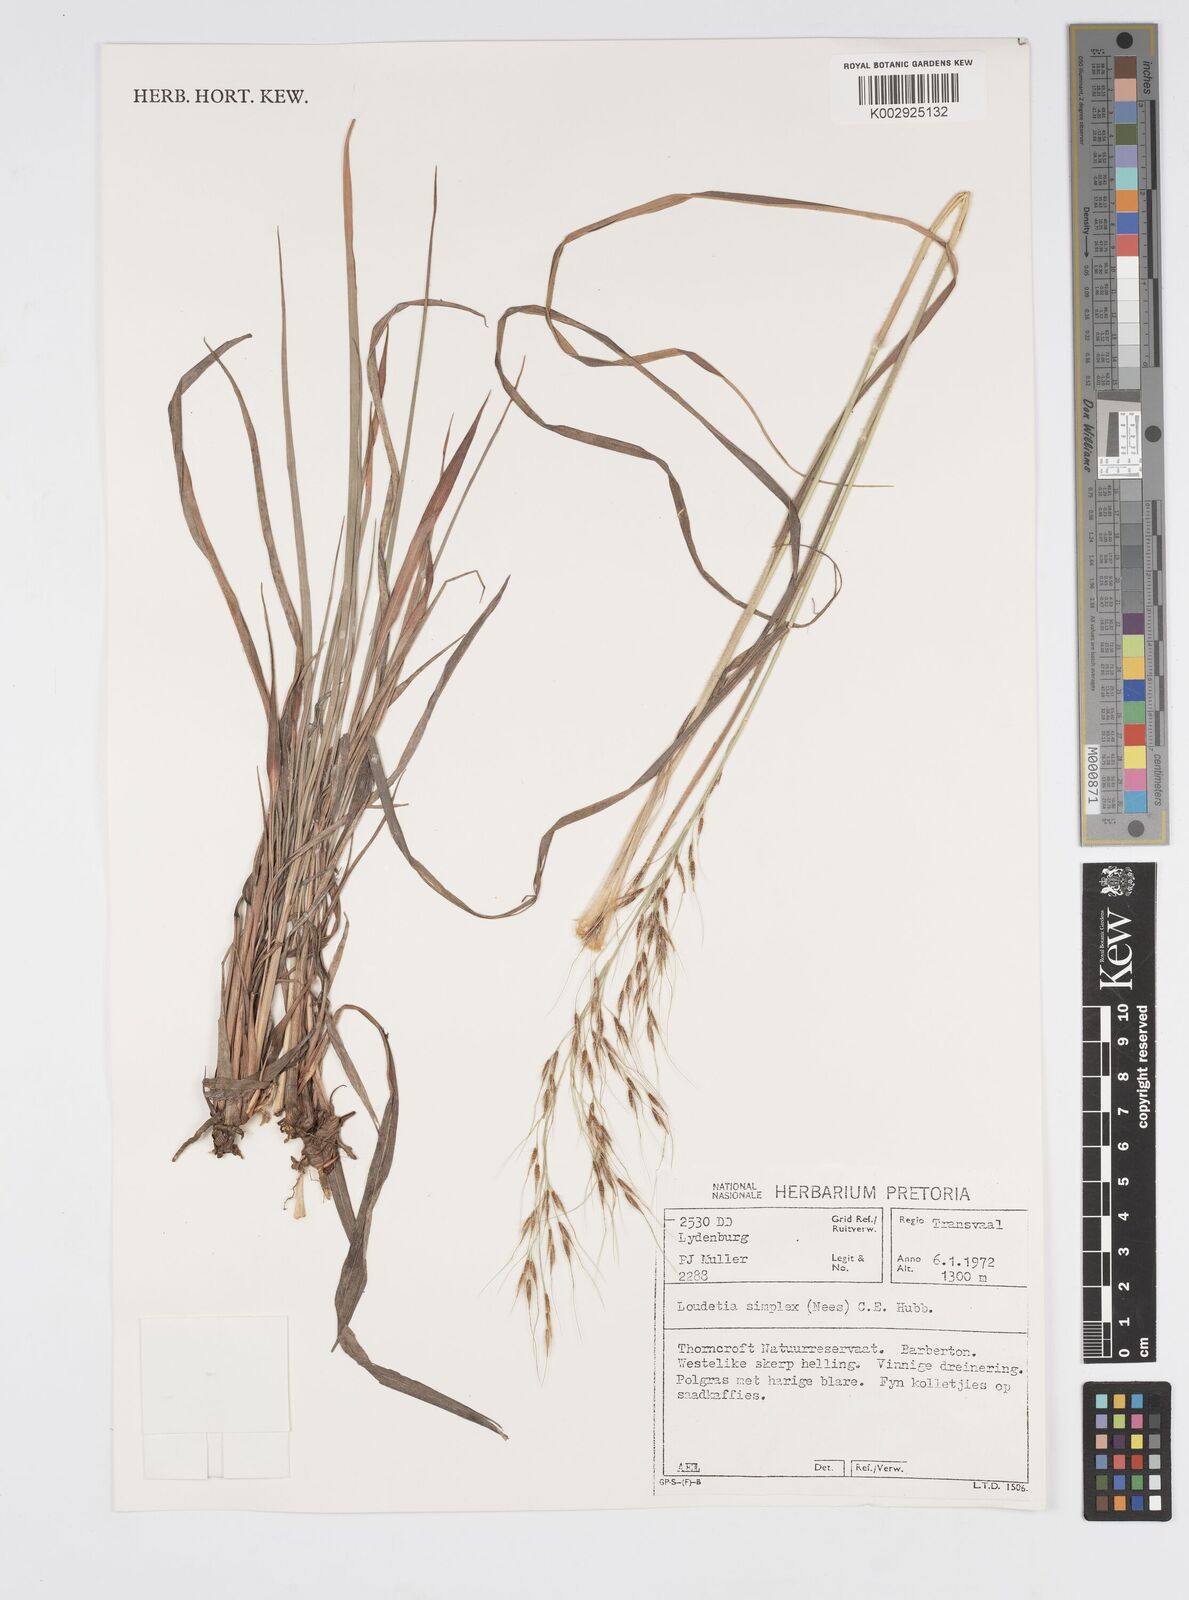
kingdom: Plantae
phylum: Tracheophyta
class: Liliopsida
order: Poales
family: Poaceae
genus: Loudetia
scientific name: Loudetia simplex
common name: Common russet grass
